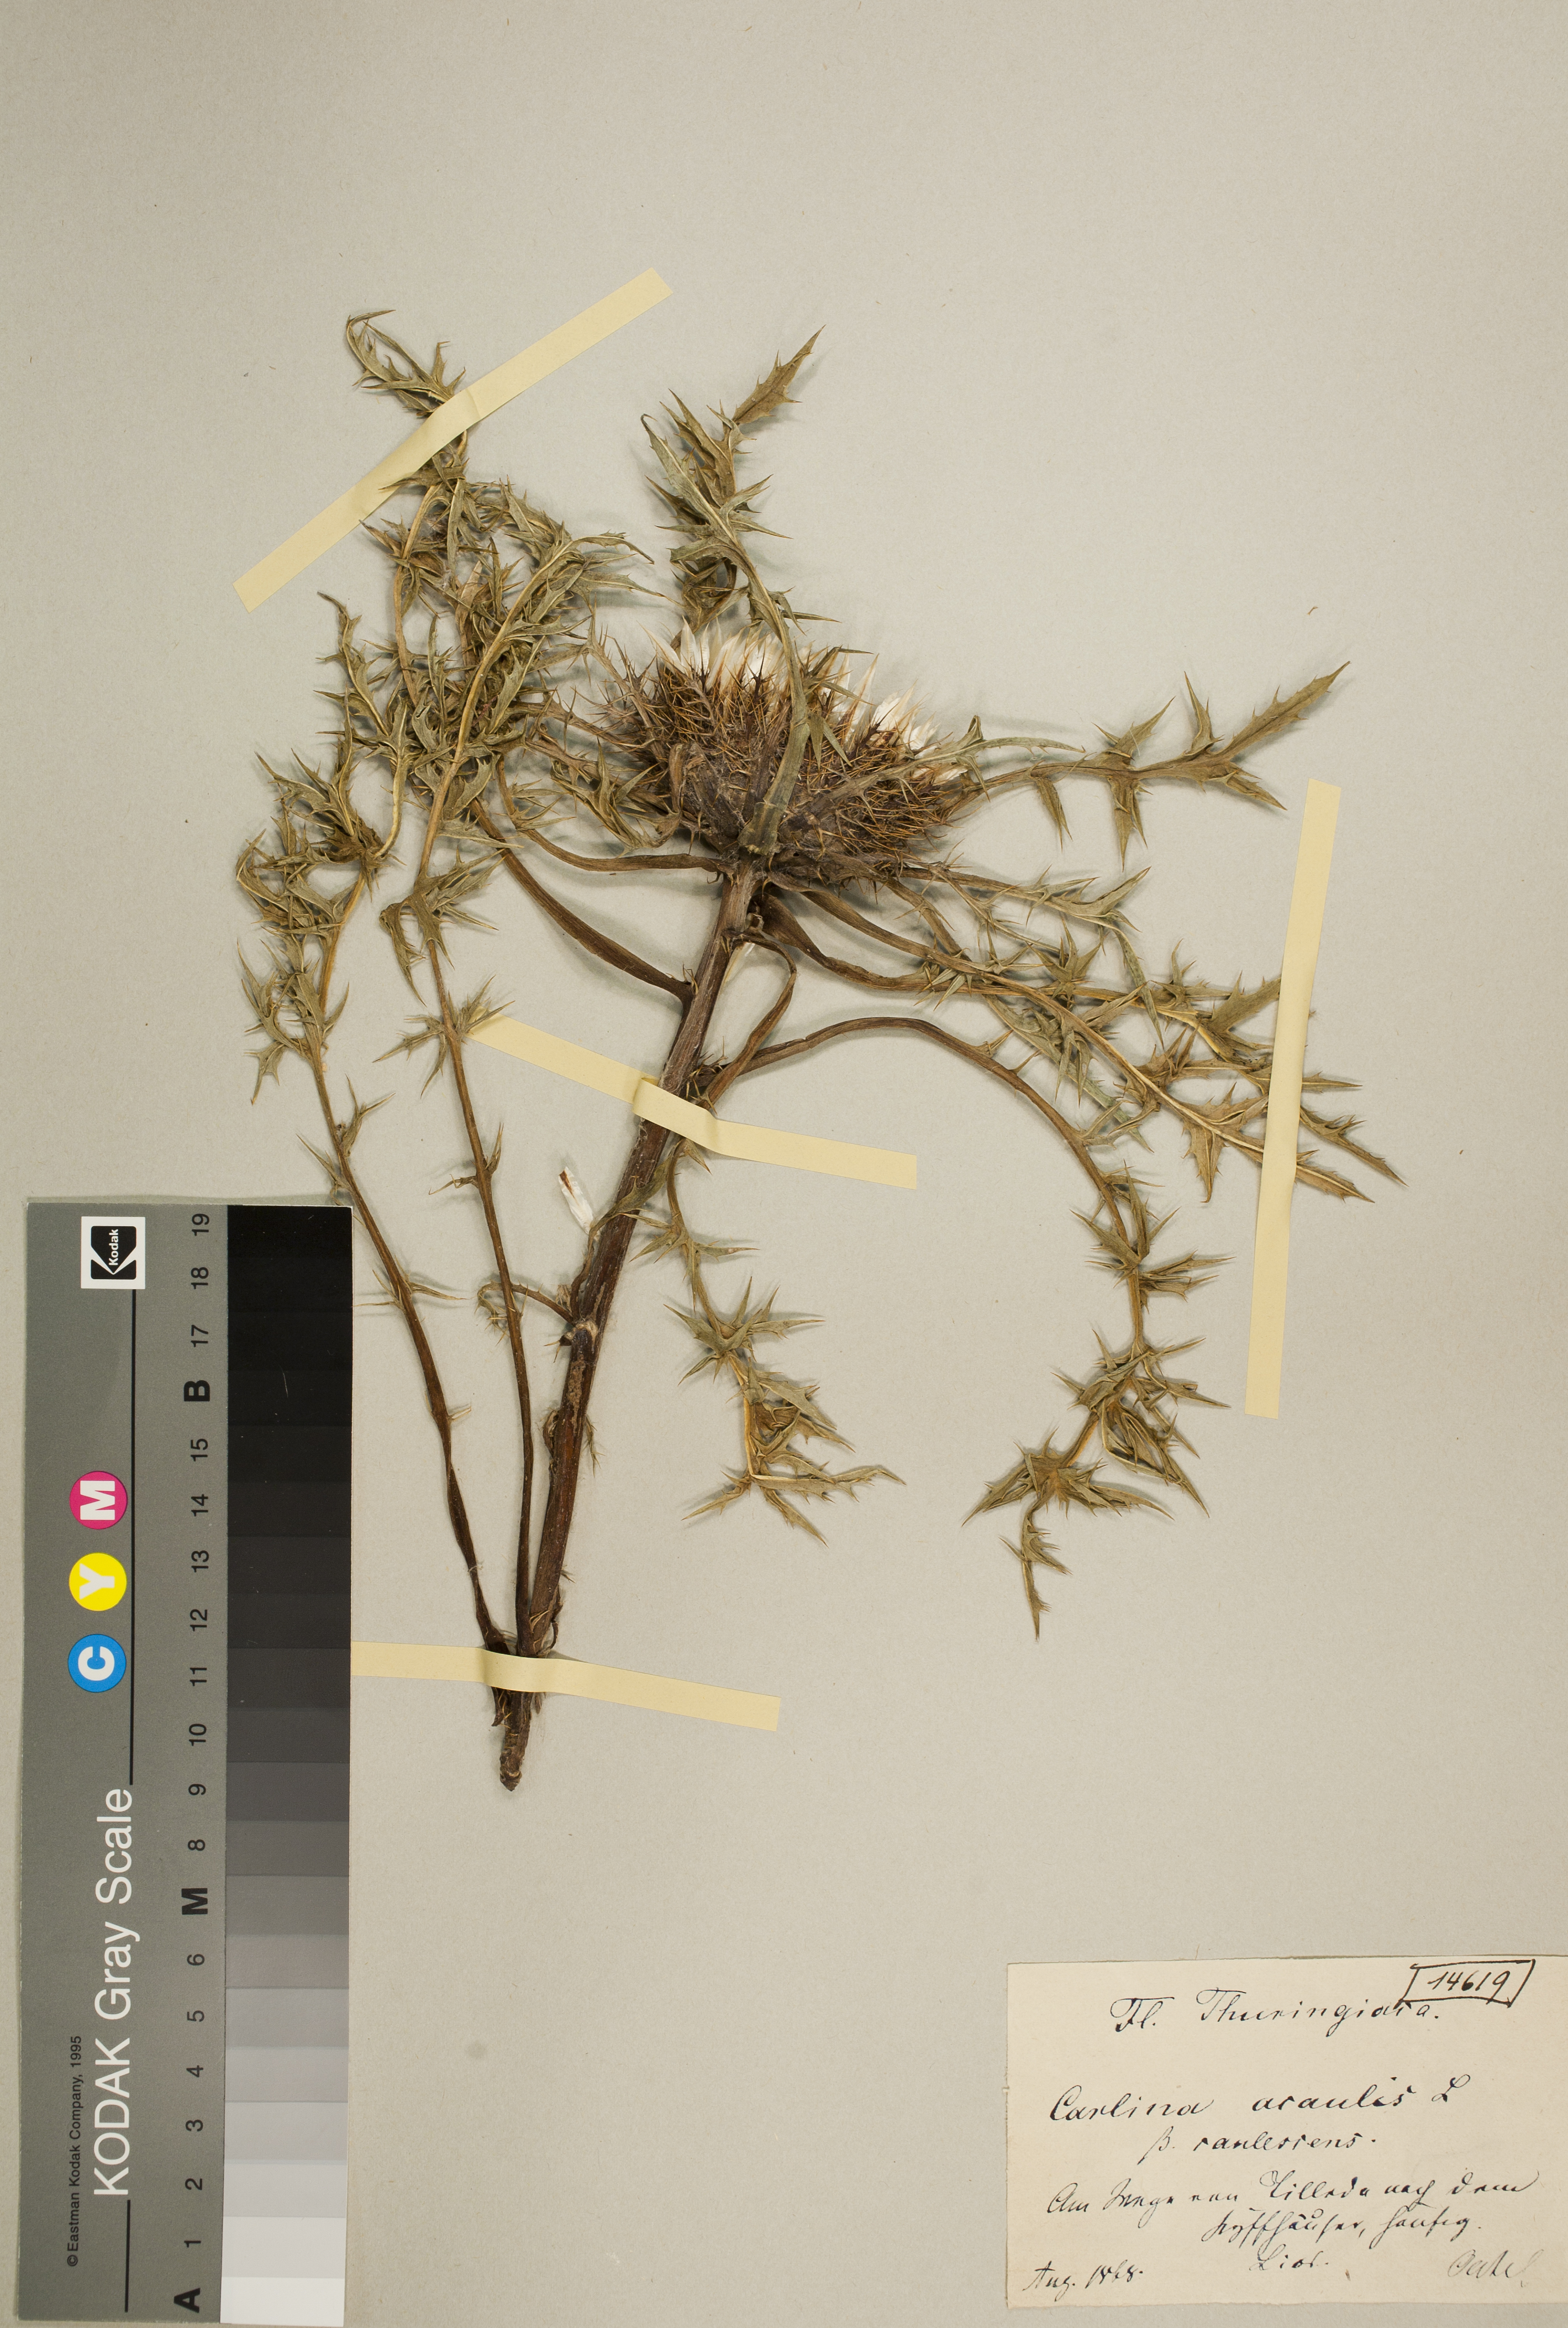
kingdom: Plantae
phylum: Tracheophyta
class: Magnoliopsida
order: Asterales
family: Asteraceae
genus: Carlina
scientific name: Carlina acaulis
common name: Stemless carline thistle
